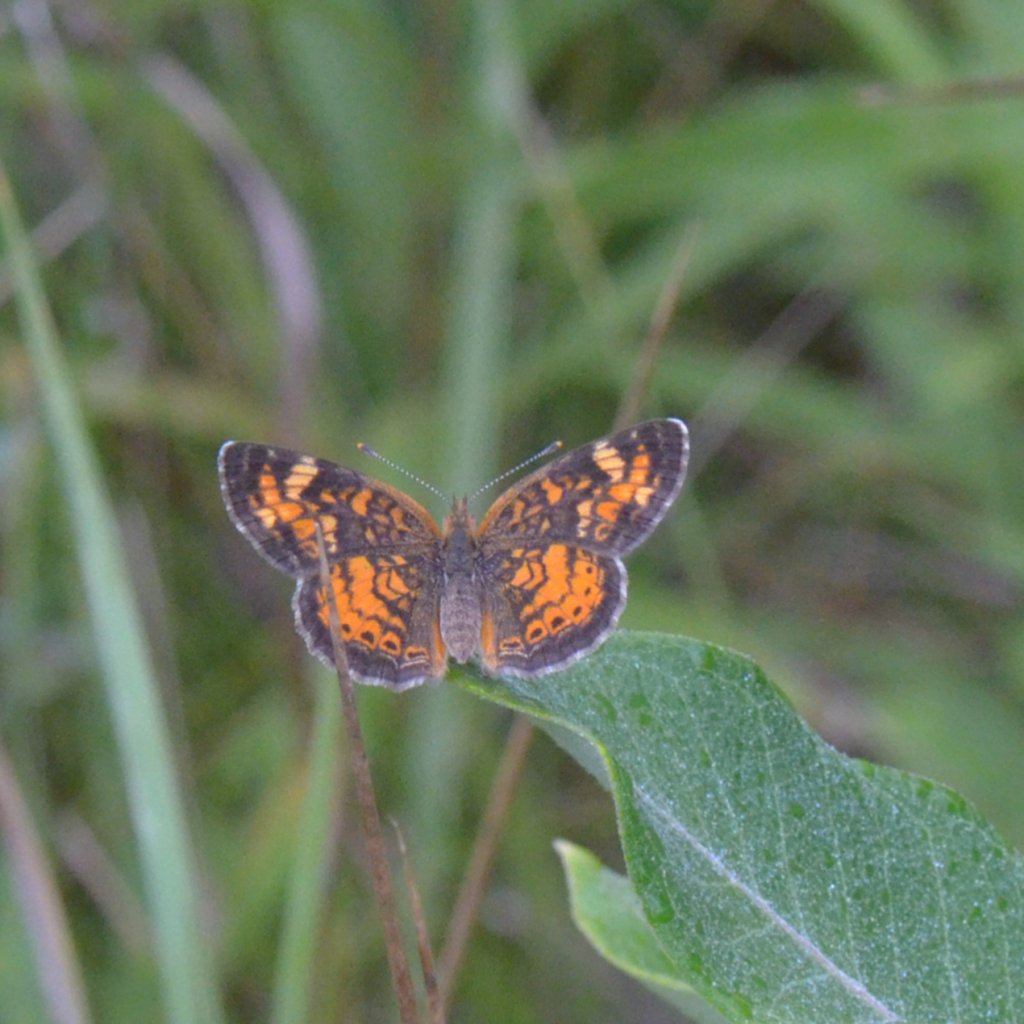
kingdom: Animalia
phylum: Arthropoda
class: Insecta
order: Lepidoptera
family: Nymphalidae
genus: Phyciodes
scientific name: Phyciodes tharos
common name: Northern Crescent
